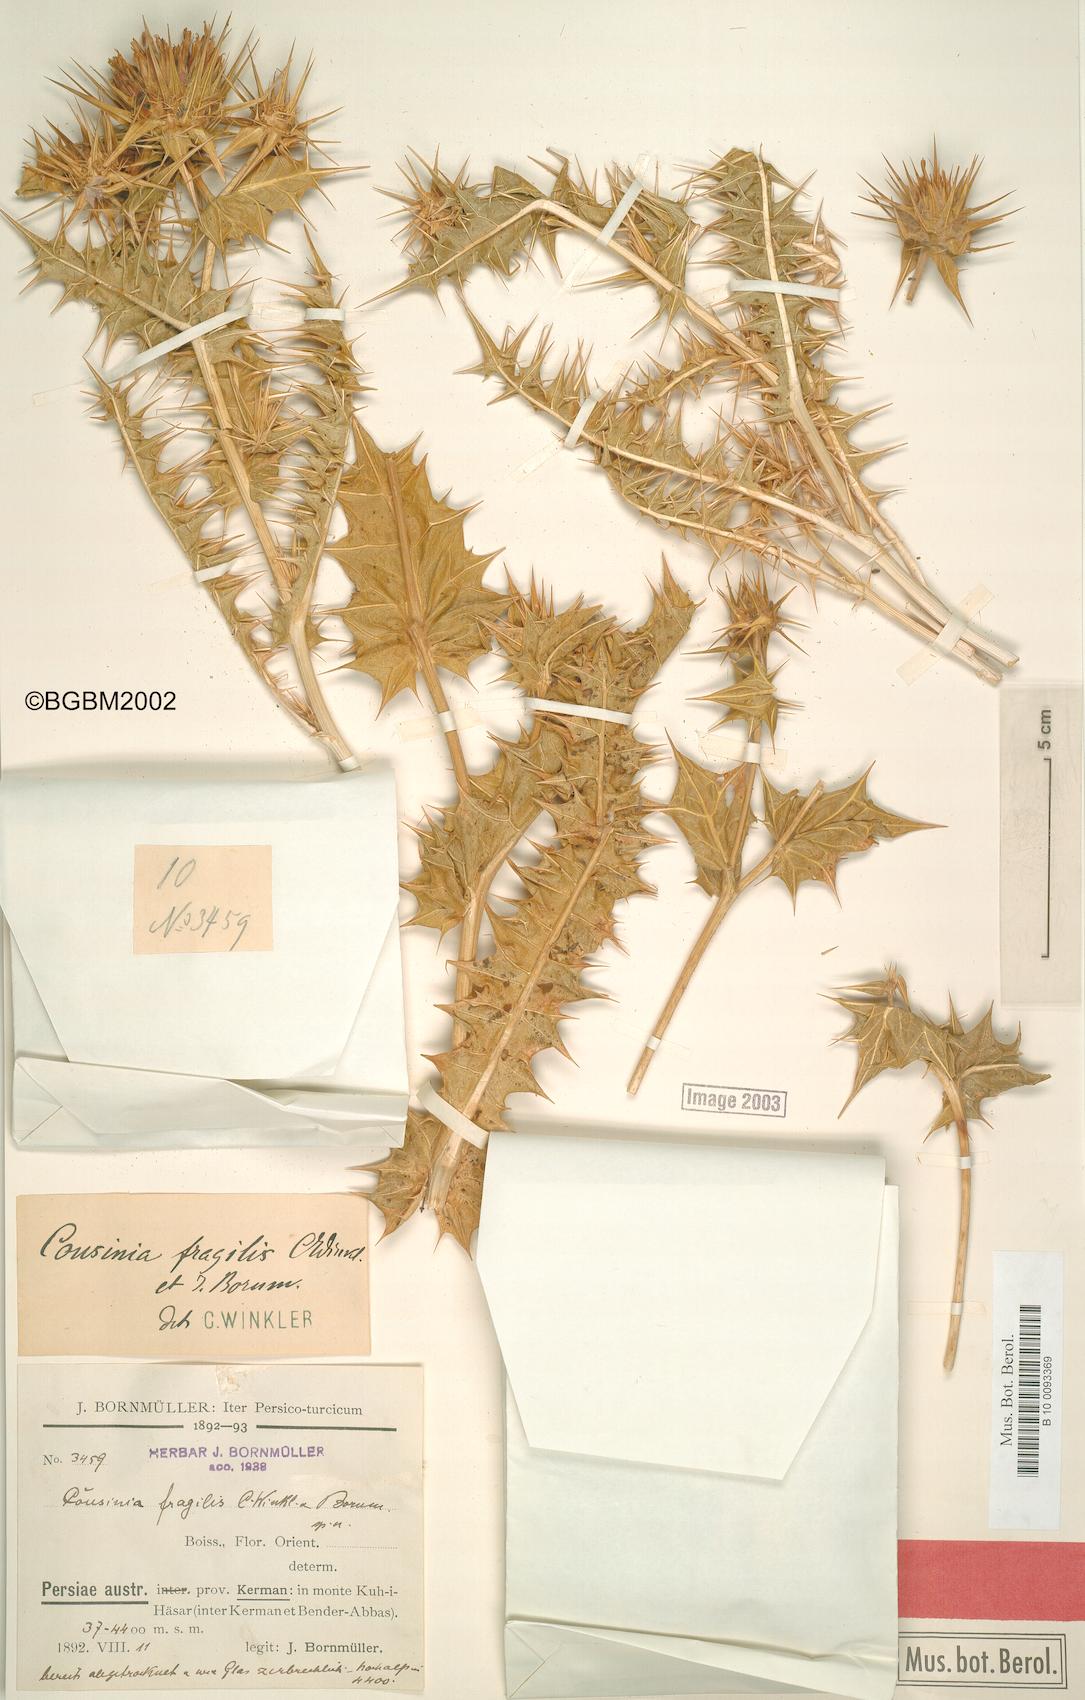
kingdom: Plantae
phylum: Tracheophyta
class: Magnoliopsida
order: Asterales
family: Asteraceae
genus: Cousinia
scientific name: Cousinia fragilis
